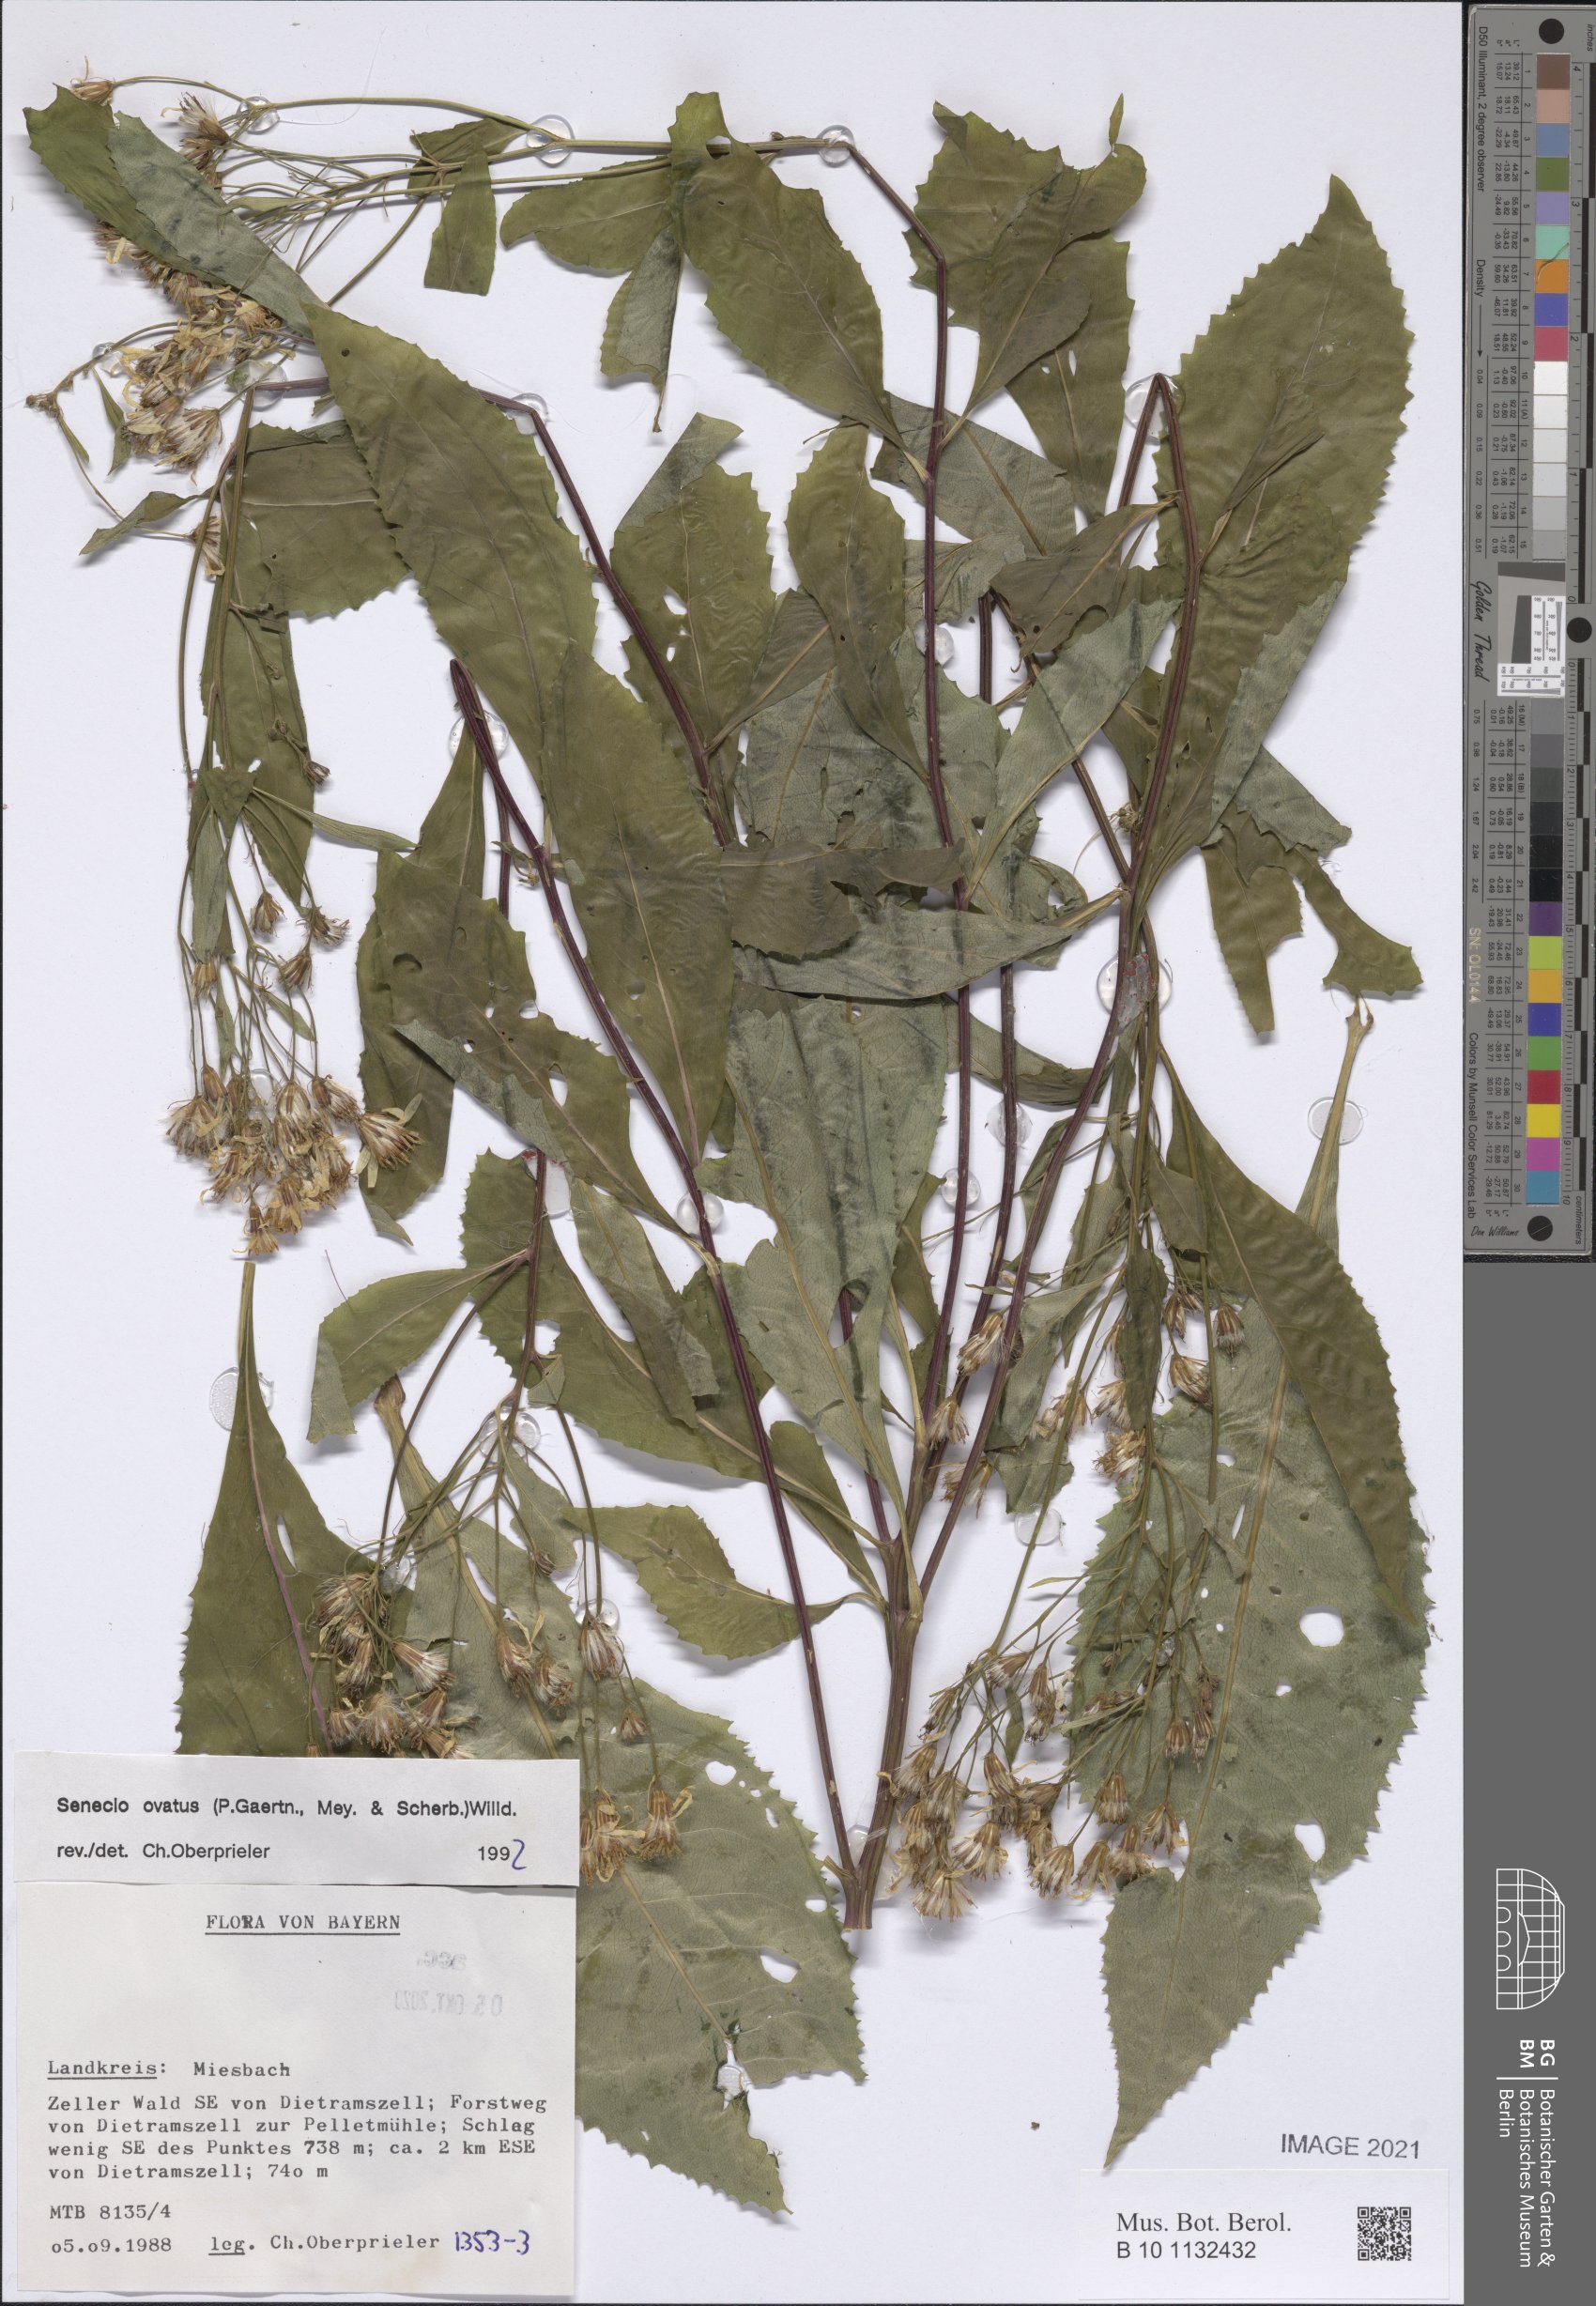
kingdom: Plantae
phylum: Tracheophyta
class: Magnoliopsida
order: Asterales
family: Asteraceae
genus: Senecio
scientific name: Senecio ovatus
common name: Wood ragwort
